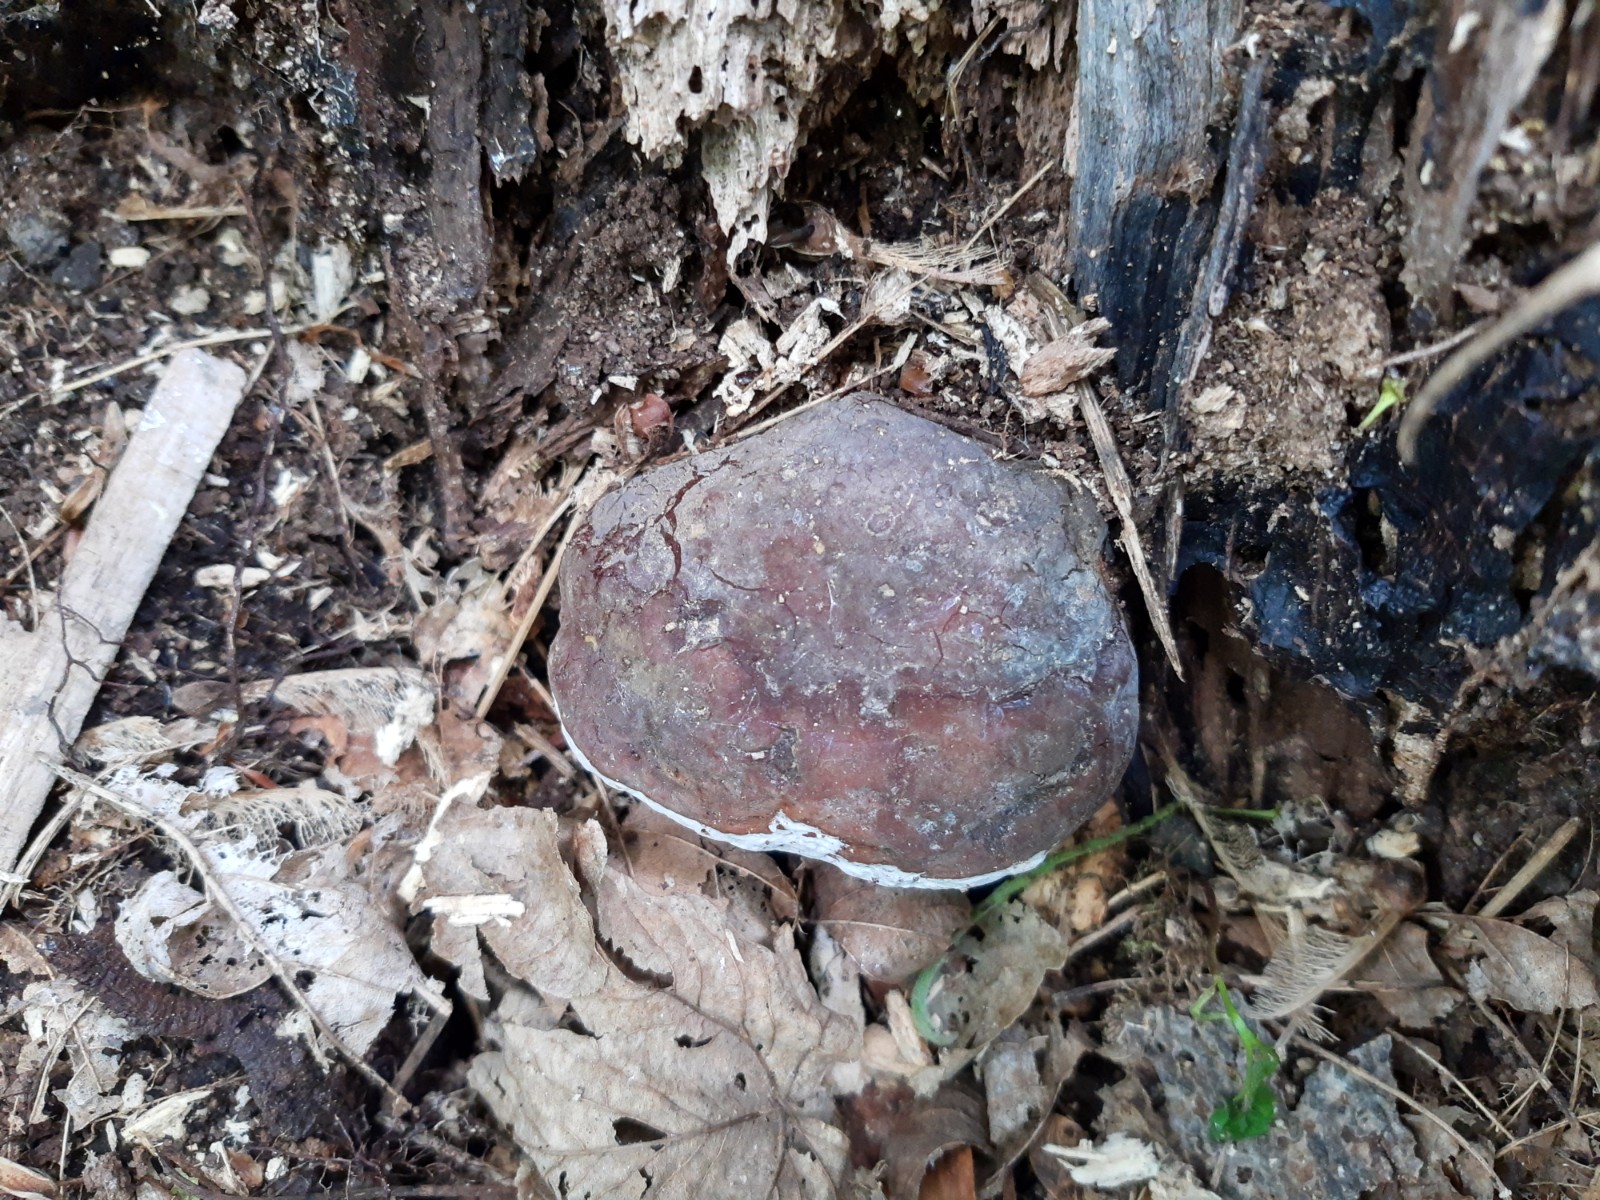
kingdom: Fungi
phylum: Basidiomycota
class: Agaricomycetes
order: Polyporales
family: Polyporaceae
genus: Ganoderma
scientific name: Ganoderma pfeifferi
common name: kobberrød lakporesvamp
